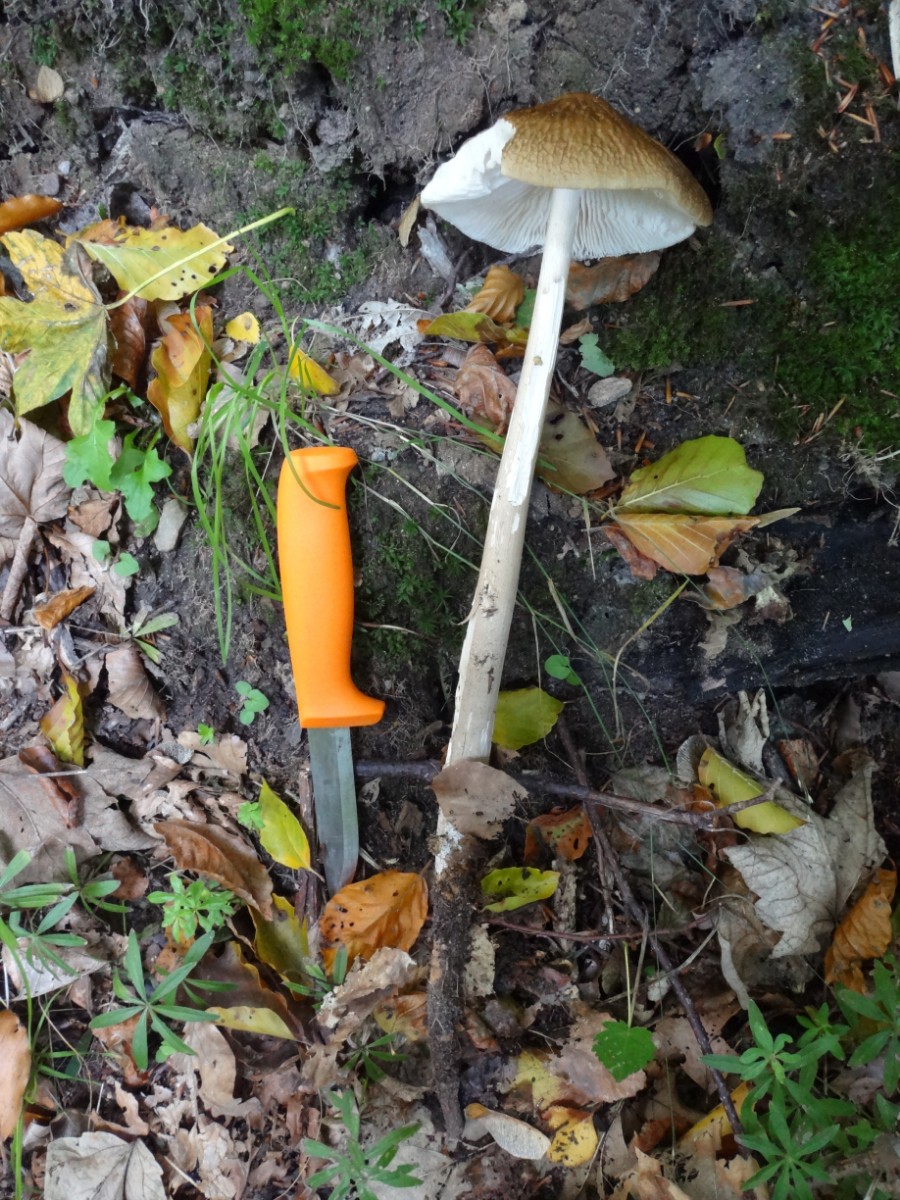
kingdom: Fungi
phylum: Basidiomycota
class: Agaricomycetes
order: Agaricales
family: Physalacriaceae
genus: Hymenopellis
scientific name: Hymenopellis radicata
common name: almindelig pælerodshat
